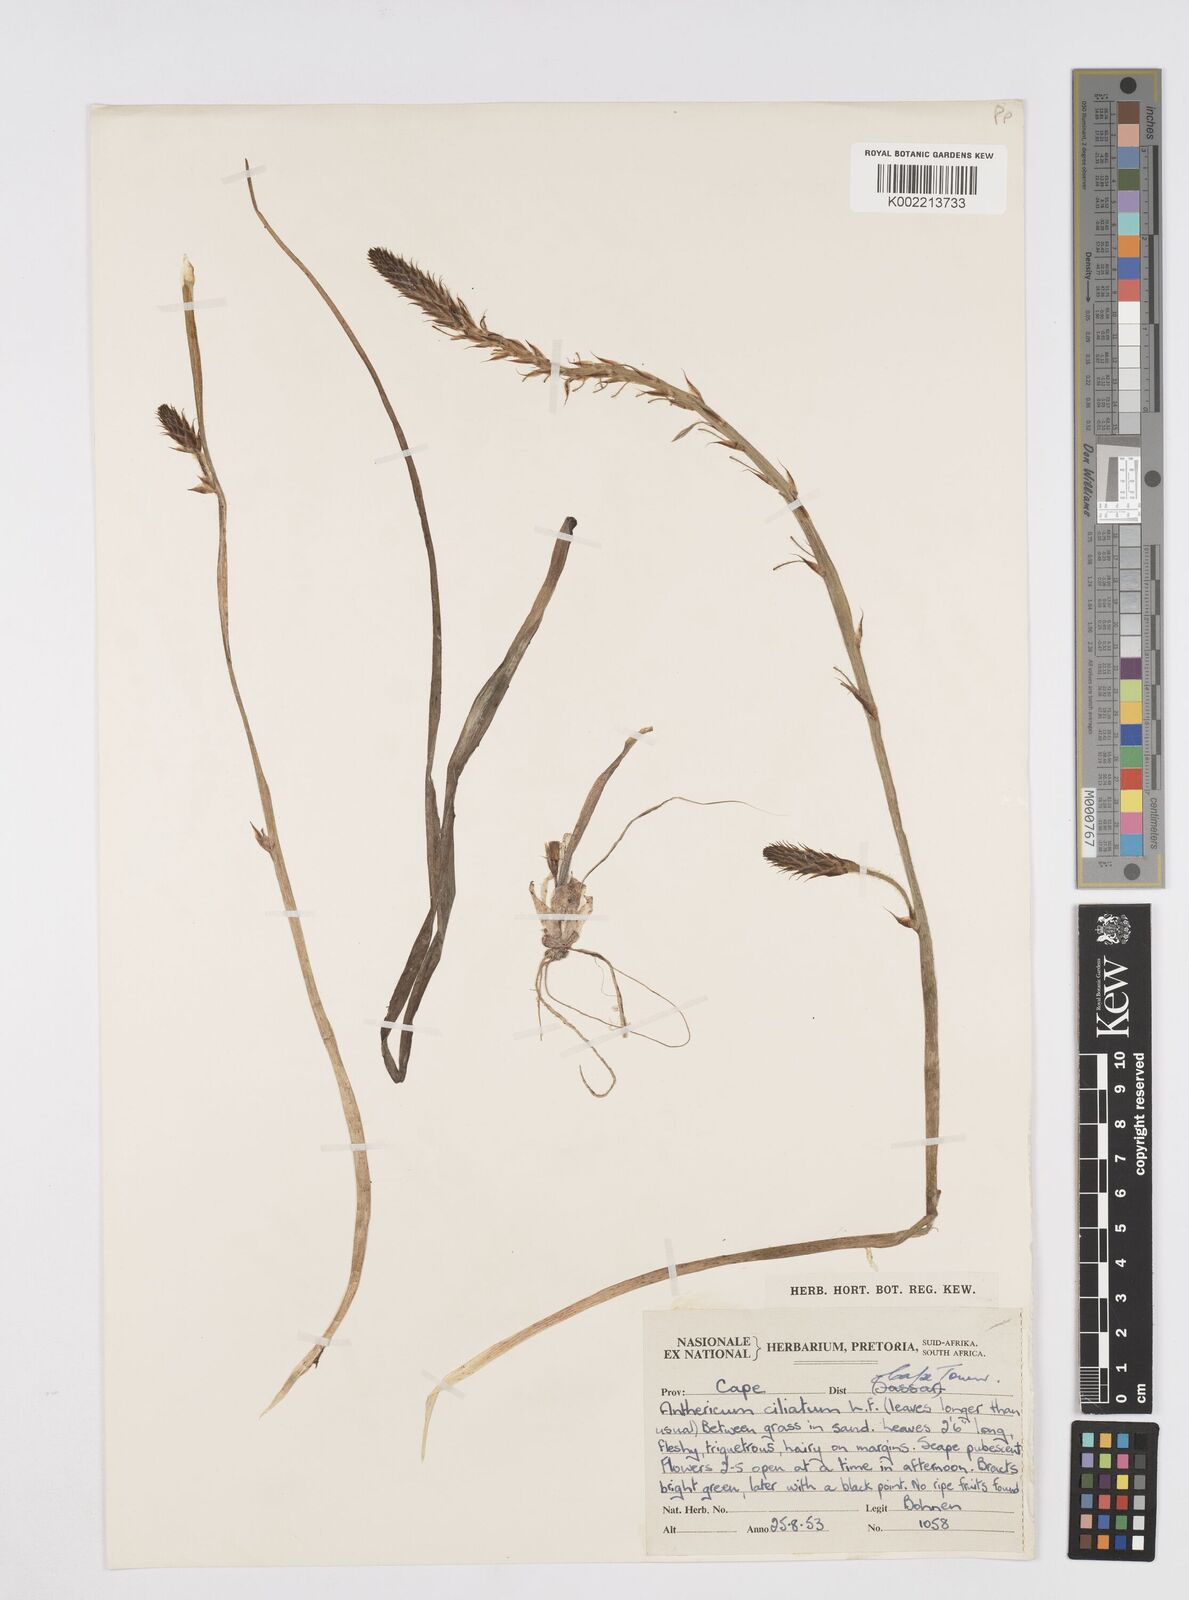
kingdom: Plantae
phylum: Tracheophyta
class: Liliopsida
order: Asparagales
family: Asphodelaceae
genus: Trachyandra
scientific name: Trachyandra ciliata
